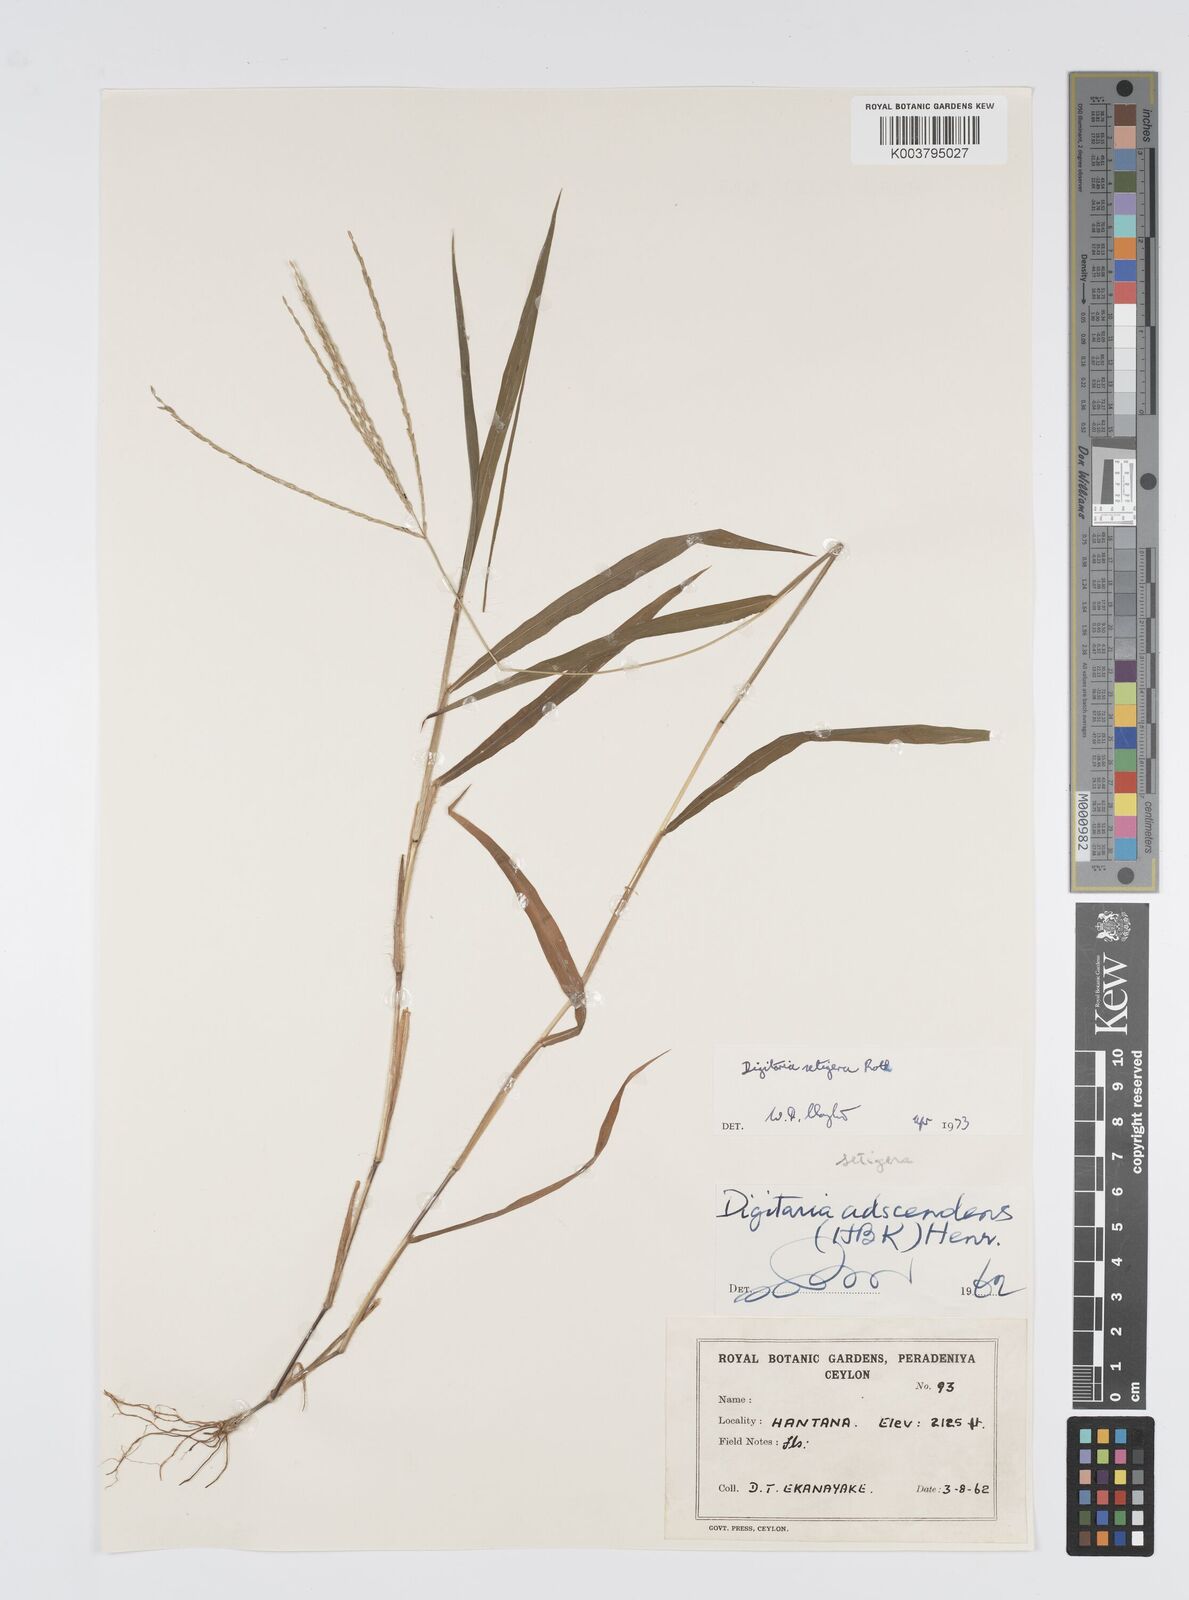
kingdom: Plantae
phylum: Tracheophyta
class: Liliopsida
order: Poales
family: Poaceae
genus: Digitaria
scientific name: Digitaria setigera
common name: East indian crabgrass
